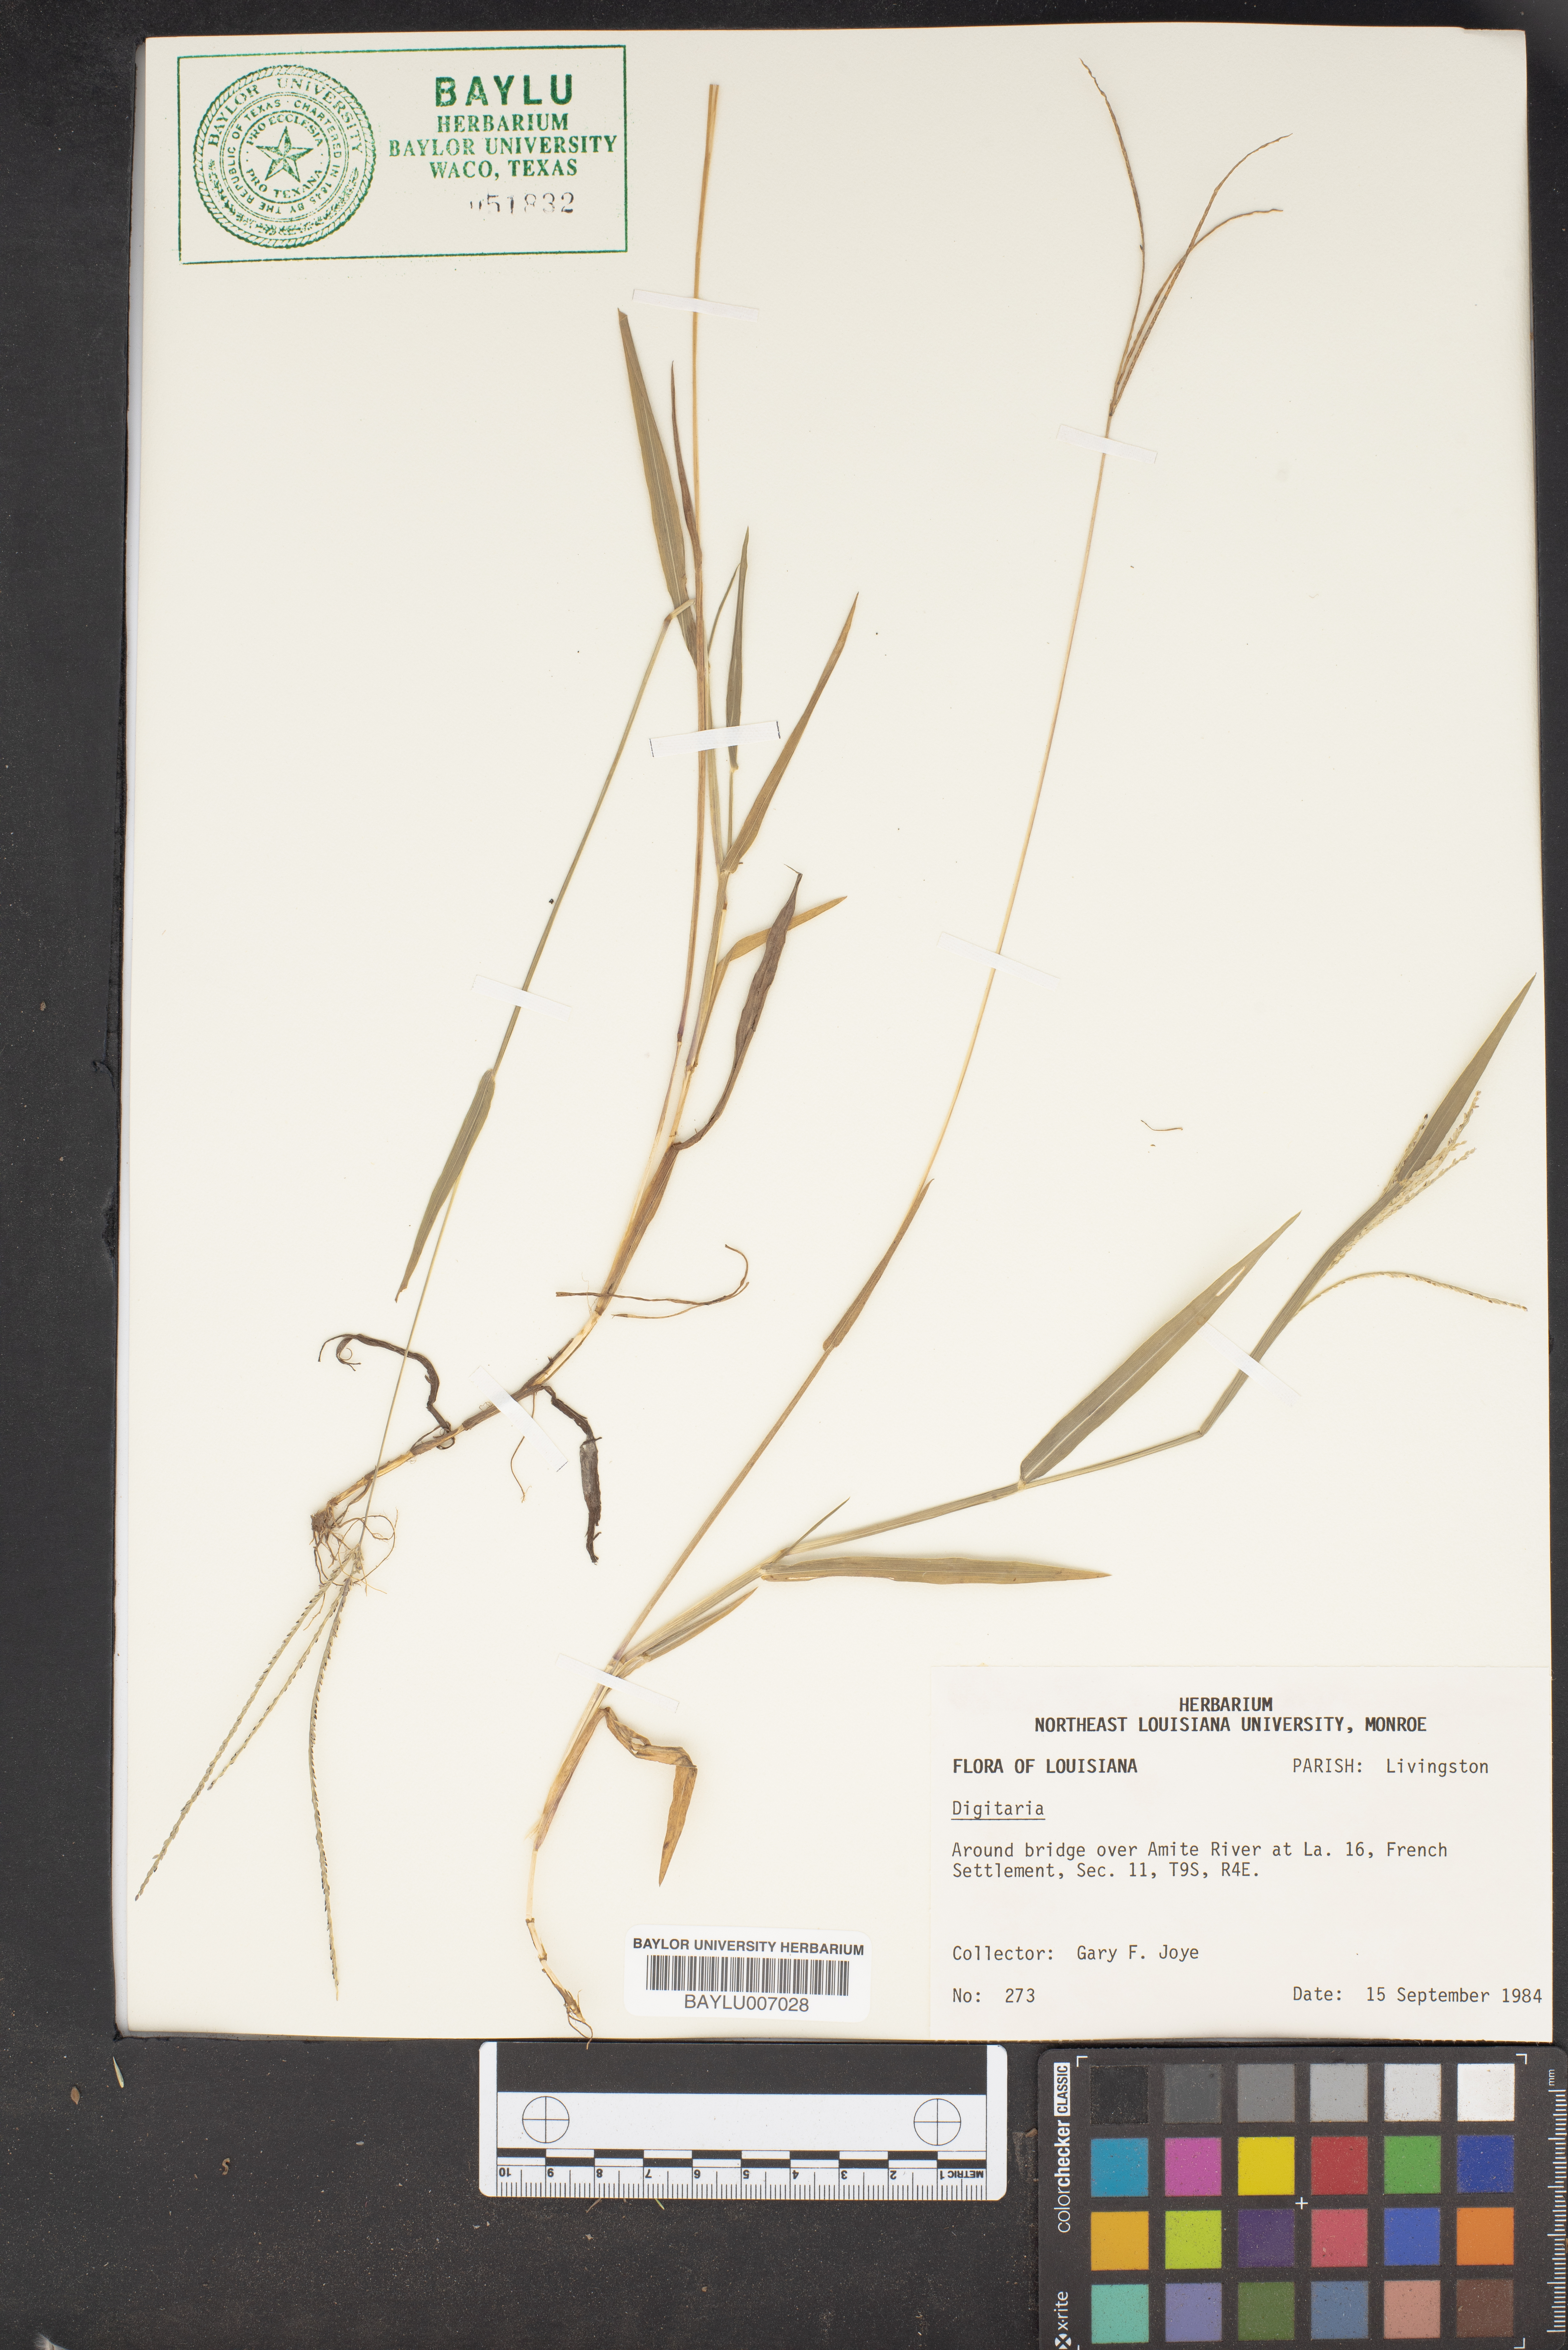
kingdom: Plantae
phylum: Tracheophyta
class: Liliopsida
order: Poales
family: Poaceae
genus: Digitaria
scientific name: Digitaria
